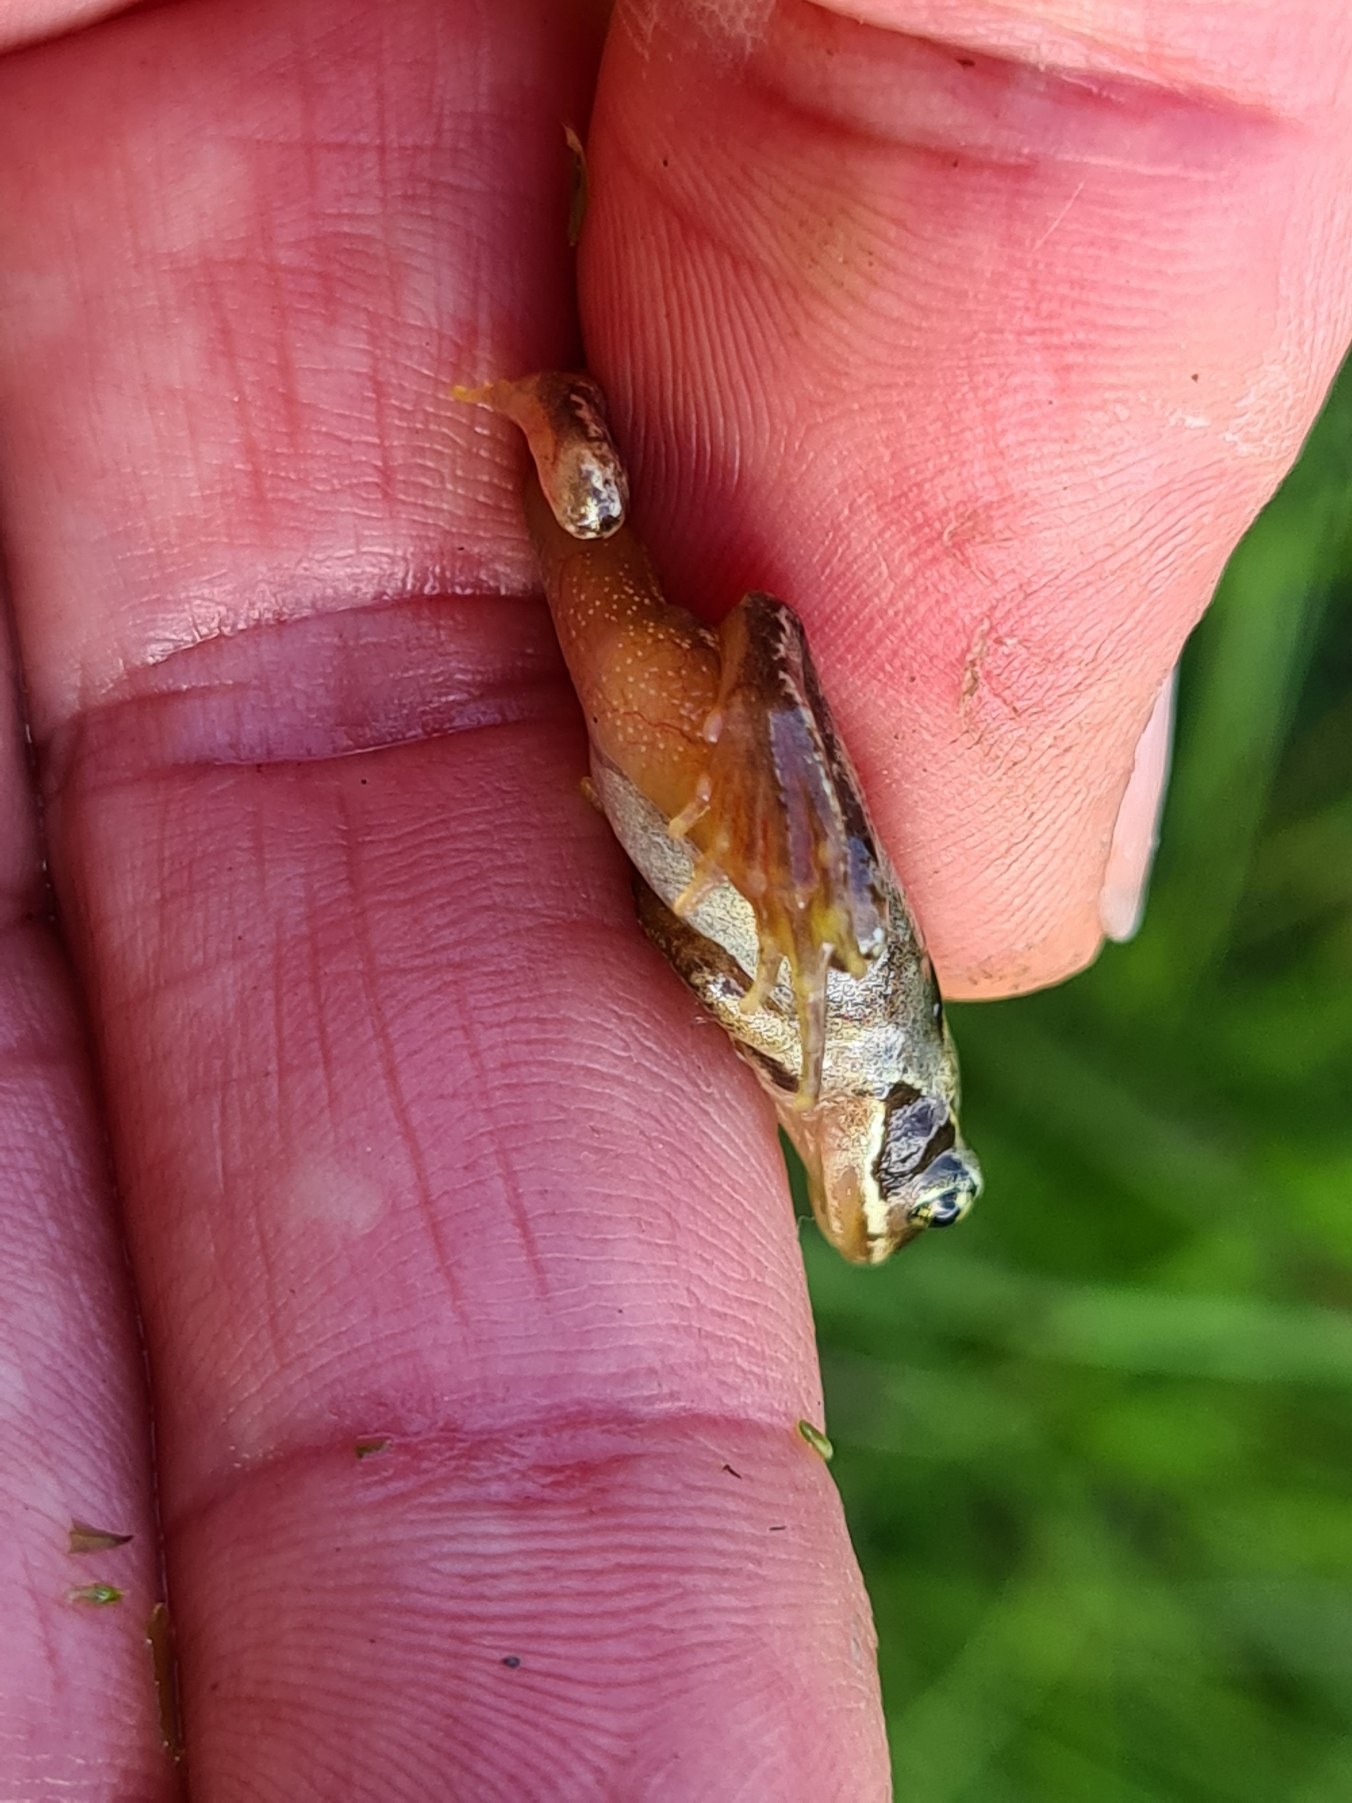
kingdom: Animalia
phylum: Chordata
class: Amphibia
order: Anura
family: Ranidae
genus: Rana
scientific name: Rana temporaria
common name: Butsnudet frø
